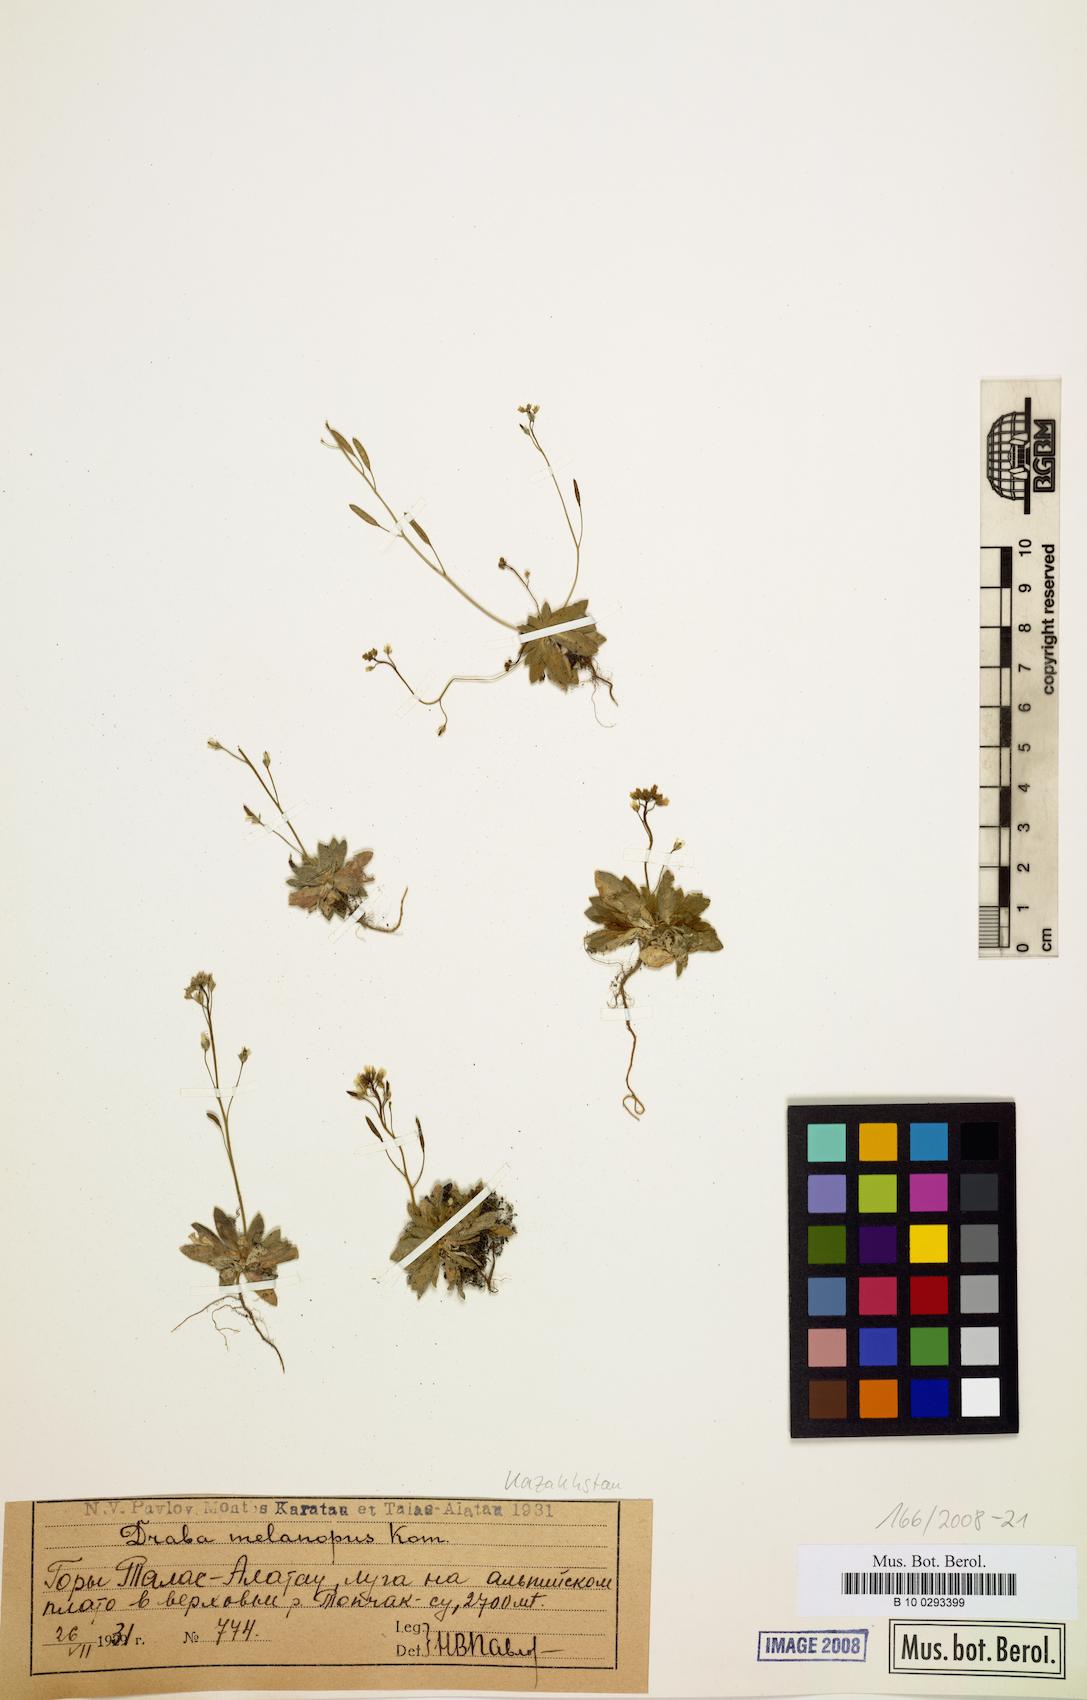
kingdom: Plantae
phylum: Tracheophyta
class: Magnoliopsida
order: Brassicales
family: Brassicaceae
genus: Draba
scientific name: Draba melanopus
